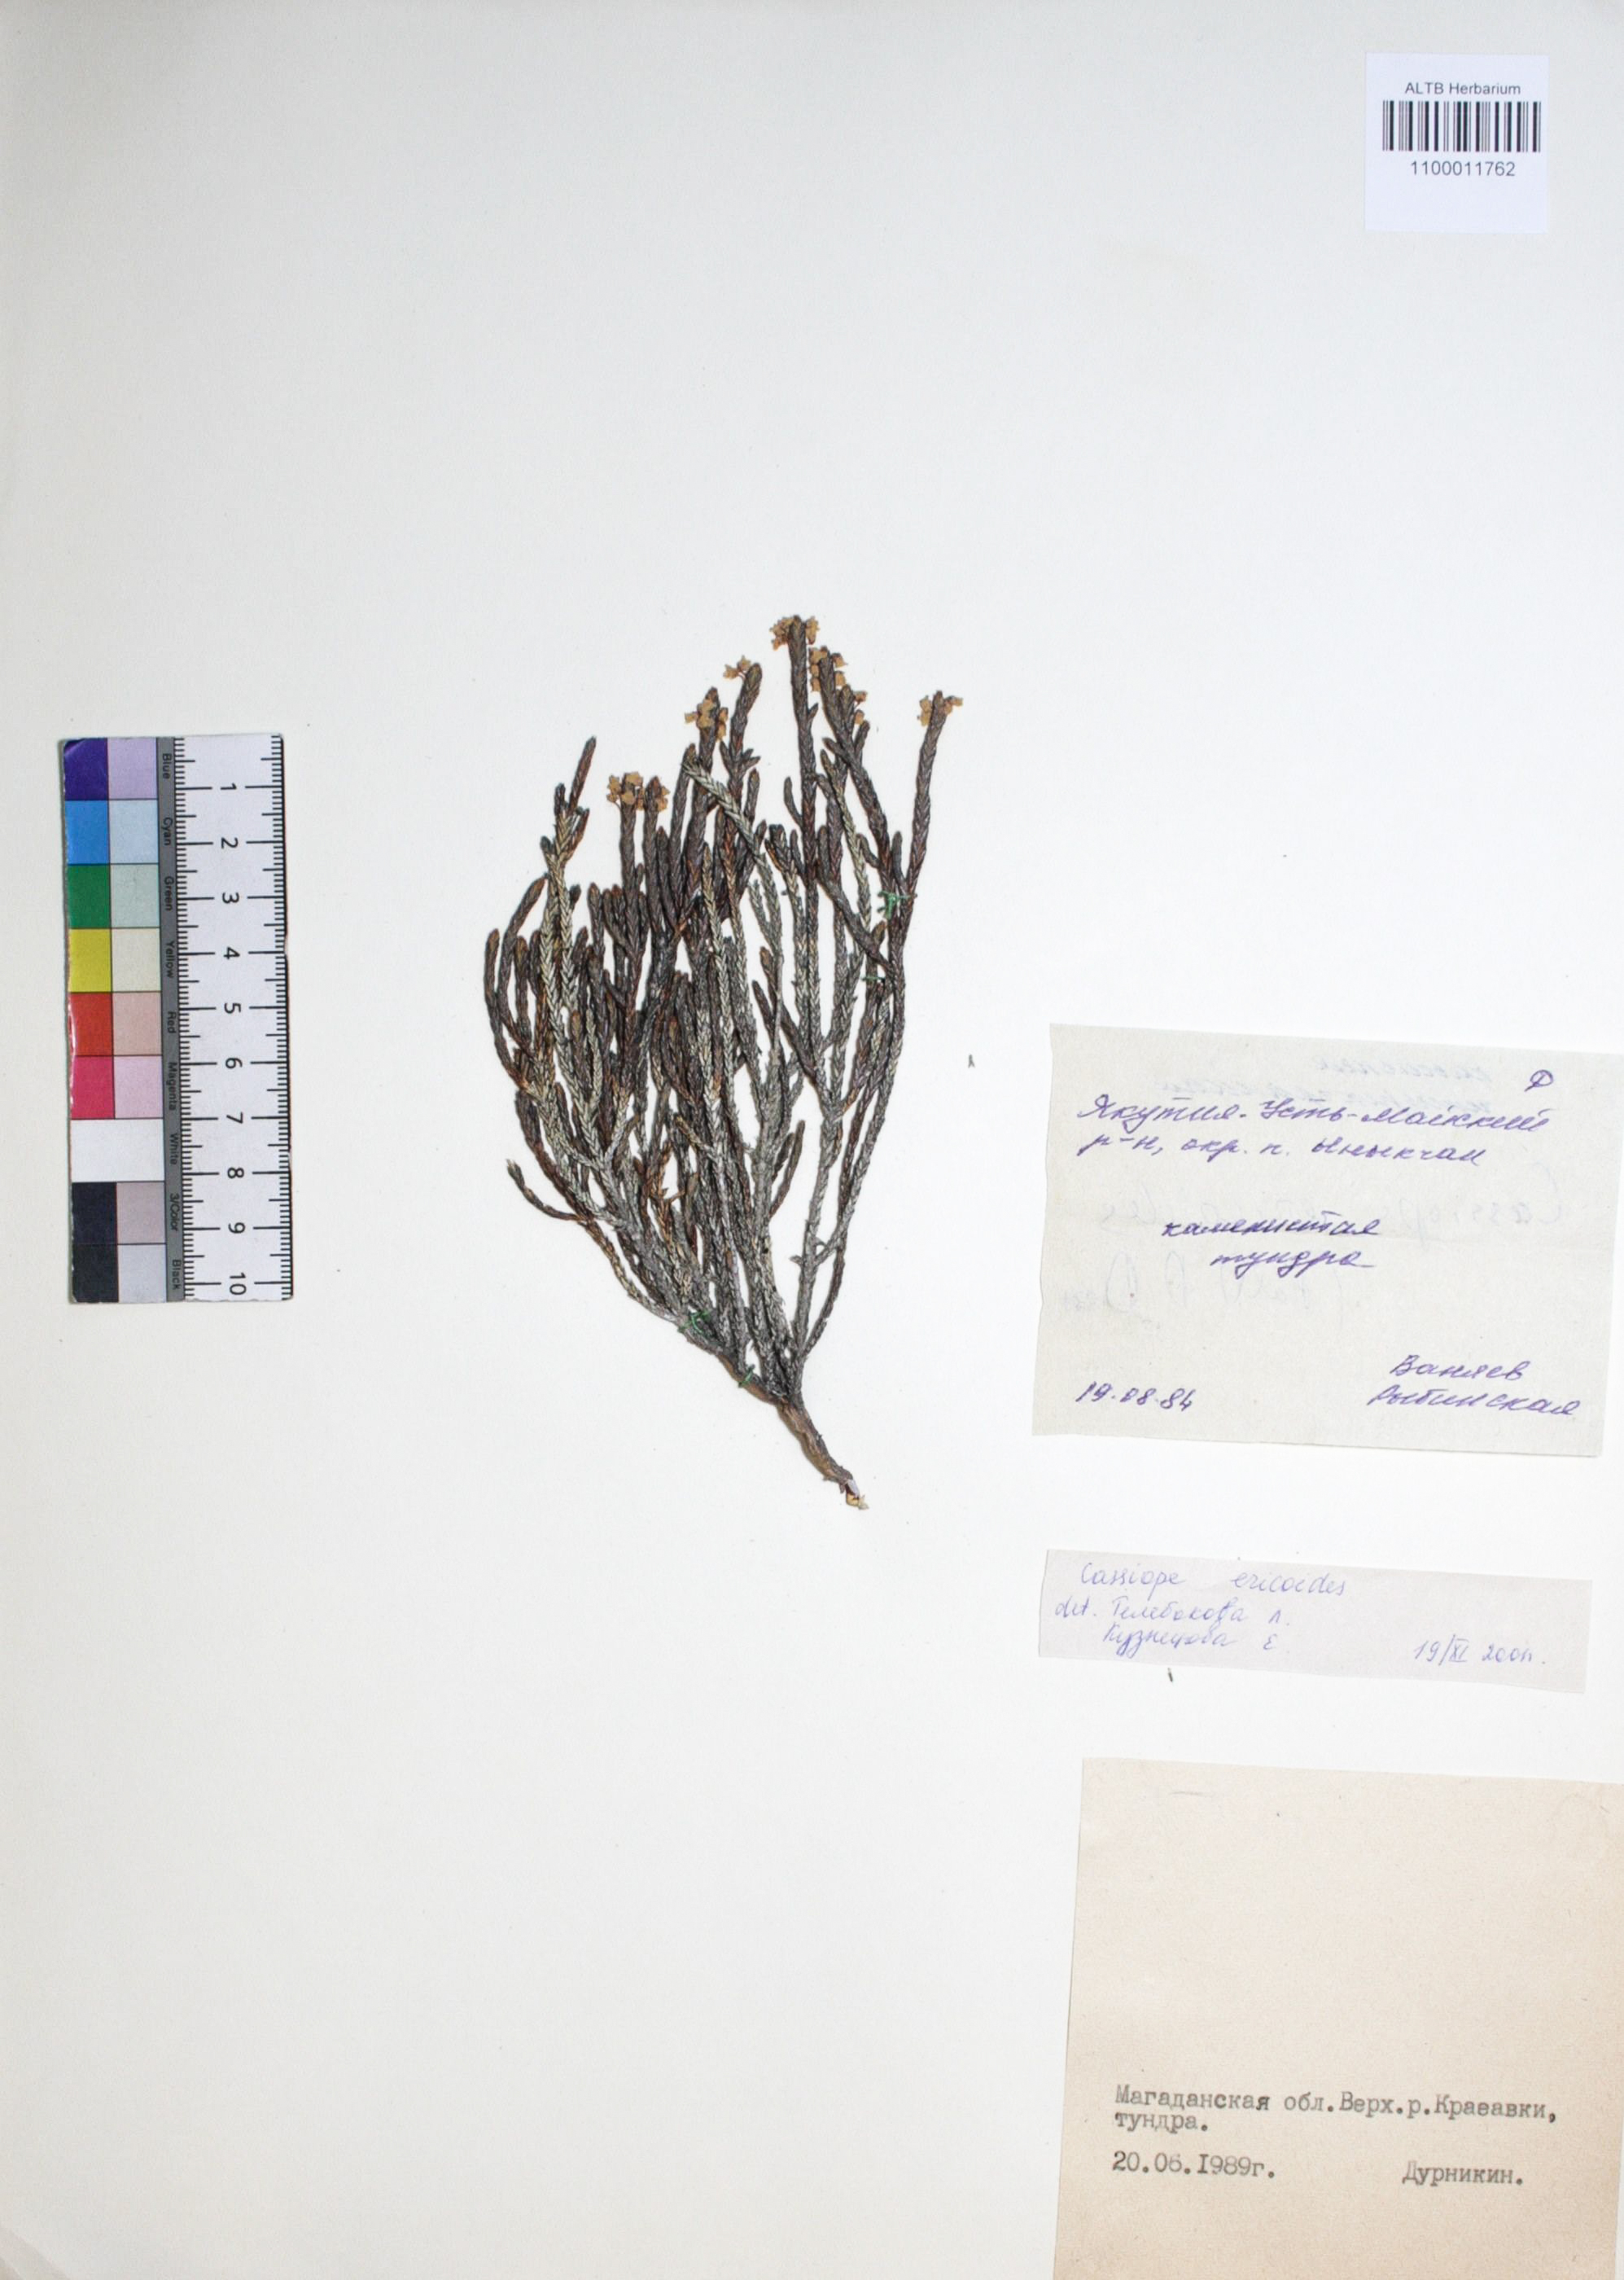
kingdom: Plantae
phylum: Tracheophyta
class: Magnoliopsida
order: Ericales
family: Ericaceae
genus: Cassiope
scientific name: Cassiope ericoides
